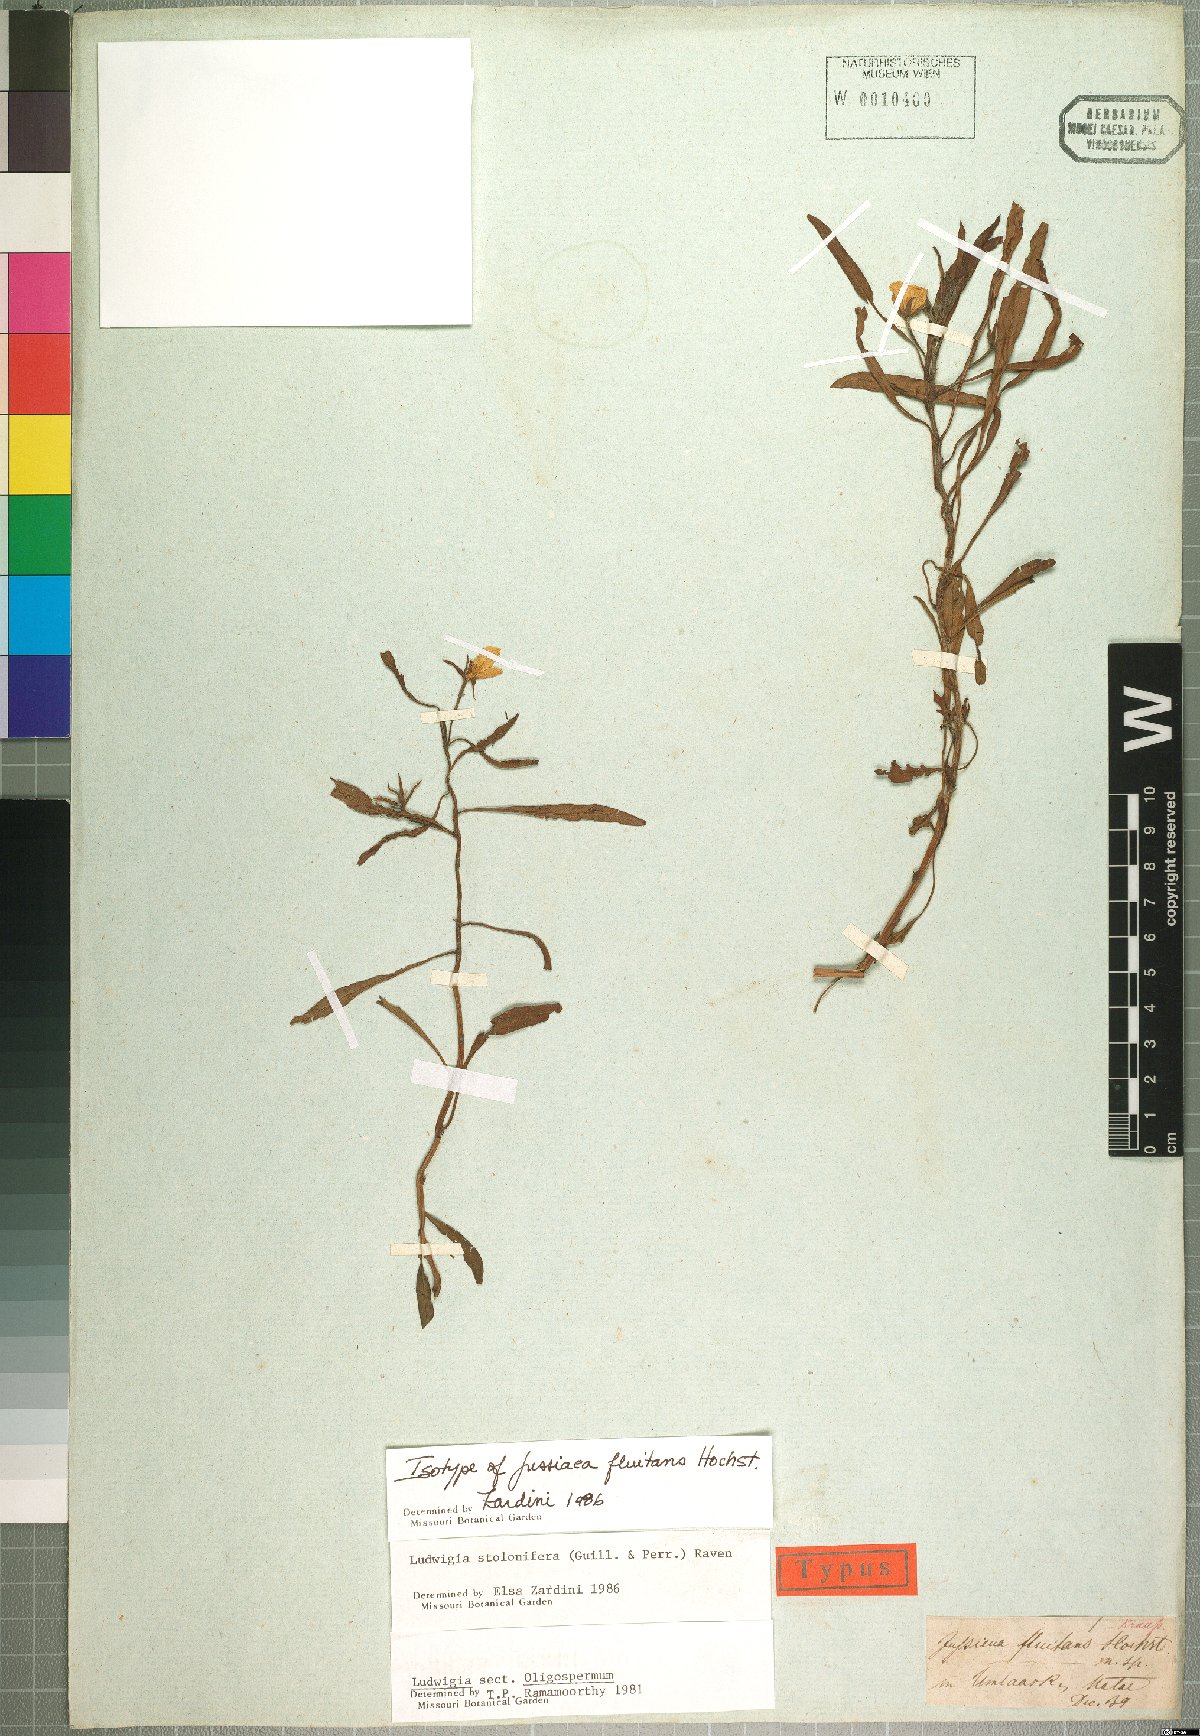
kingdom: Plantae
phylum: Tracheophyta
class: Magnoliopsida
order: Myrtales
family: Onagraceae
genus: Ludwigia
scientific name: Ludwigia adscendens
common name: Creeping water primrose
